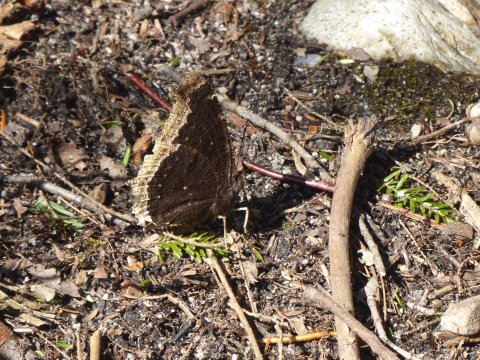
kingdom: Animalia
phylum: Arthropoda
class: Insecta
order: Lepidoptera
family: Nymphalidae
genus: Nymphalis
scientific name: Nymphalis antiopa
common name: Mourning Cloak
